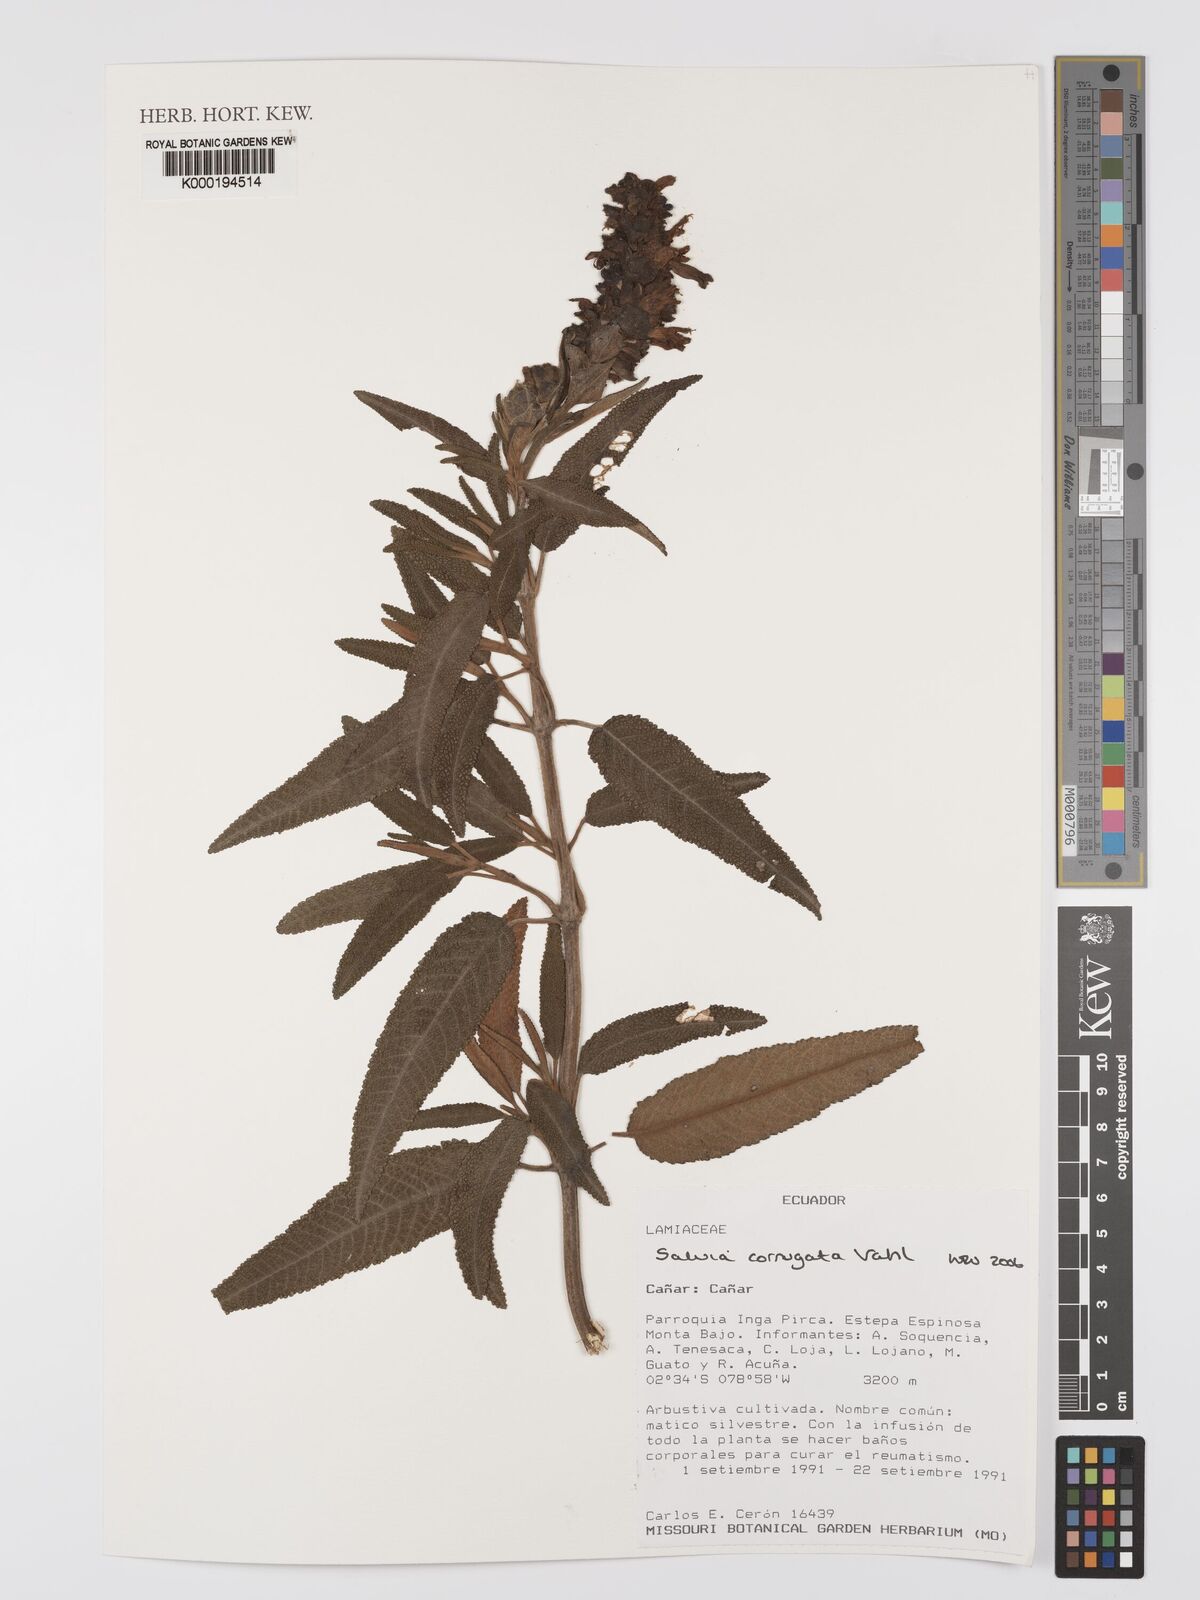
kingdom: Plantae
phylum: Tracheophyta
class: Magnoliopsida
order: Lamiales
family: Lamiaceae
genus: Salvia
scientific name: Salvia corrugata
